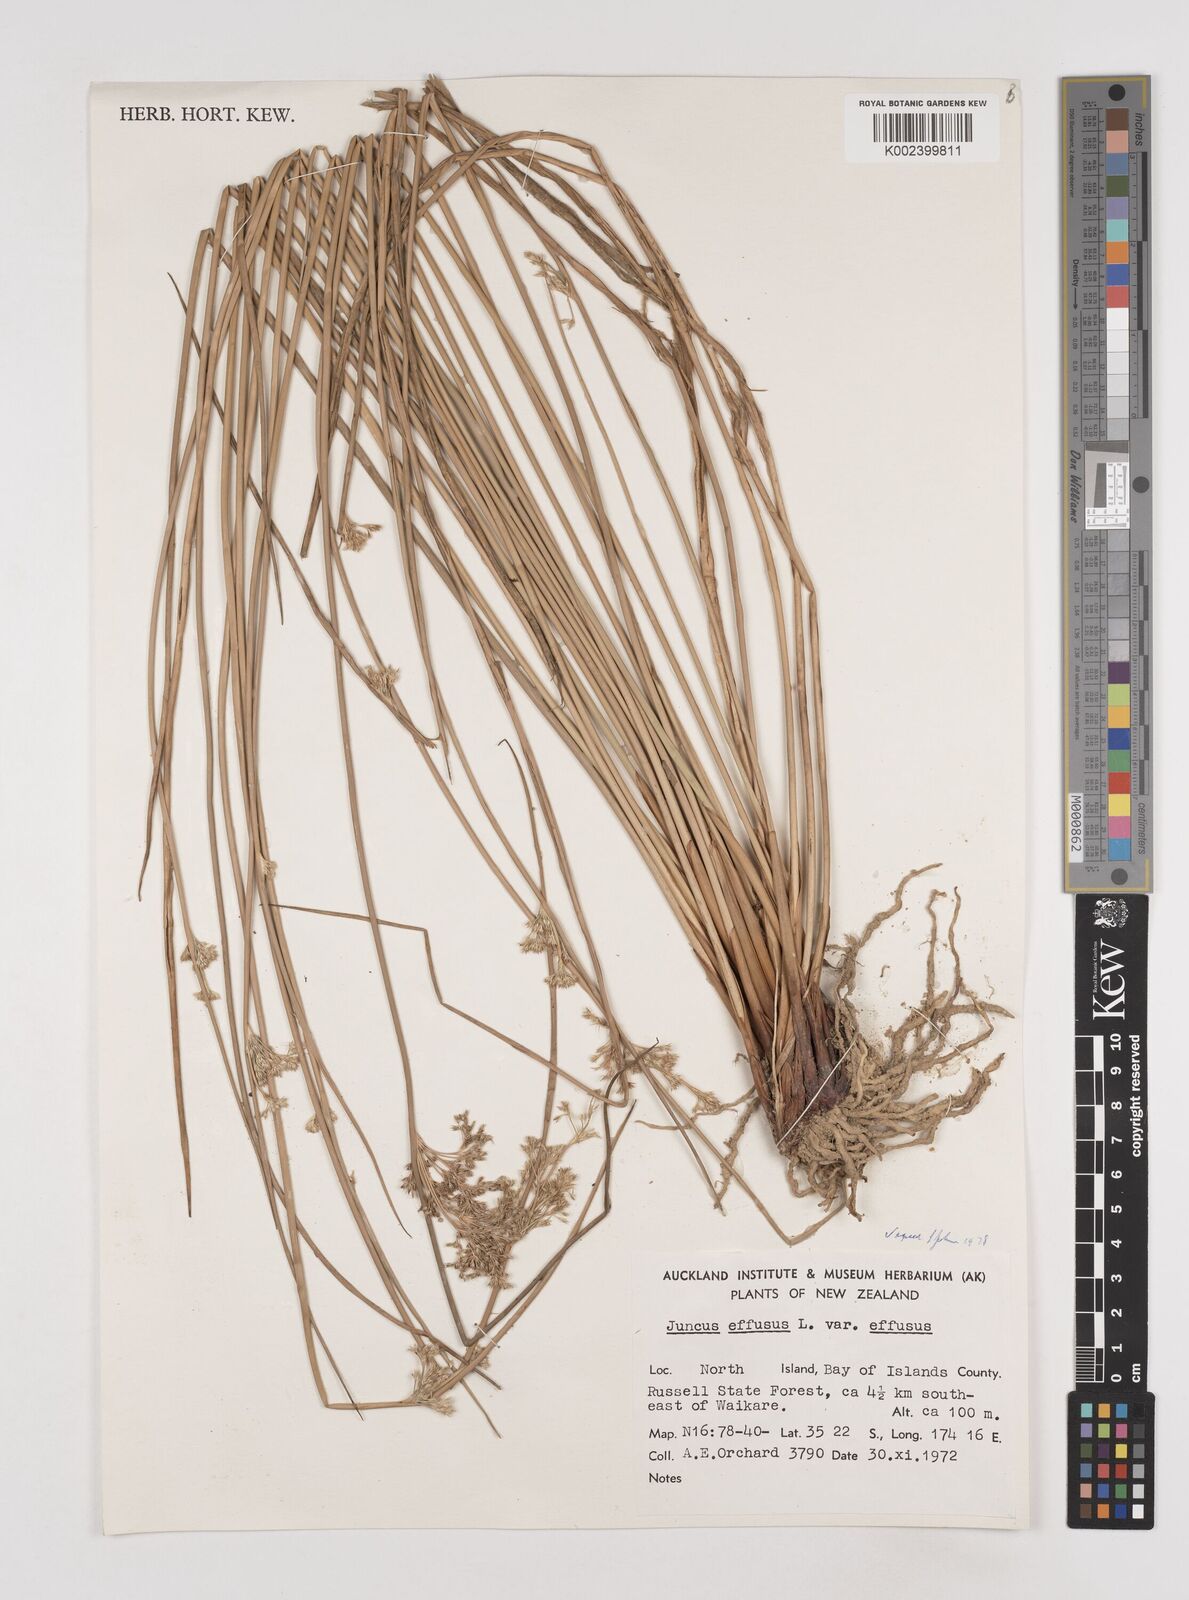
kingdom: Plantae
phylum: Tracheophyta
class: Liliopsida
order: Poales
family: Juncaceae
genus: Juncus
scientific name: Juncus effusus
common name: Soft rush
